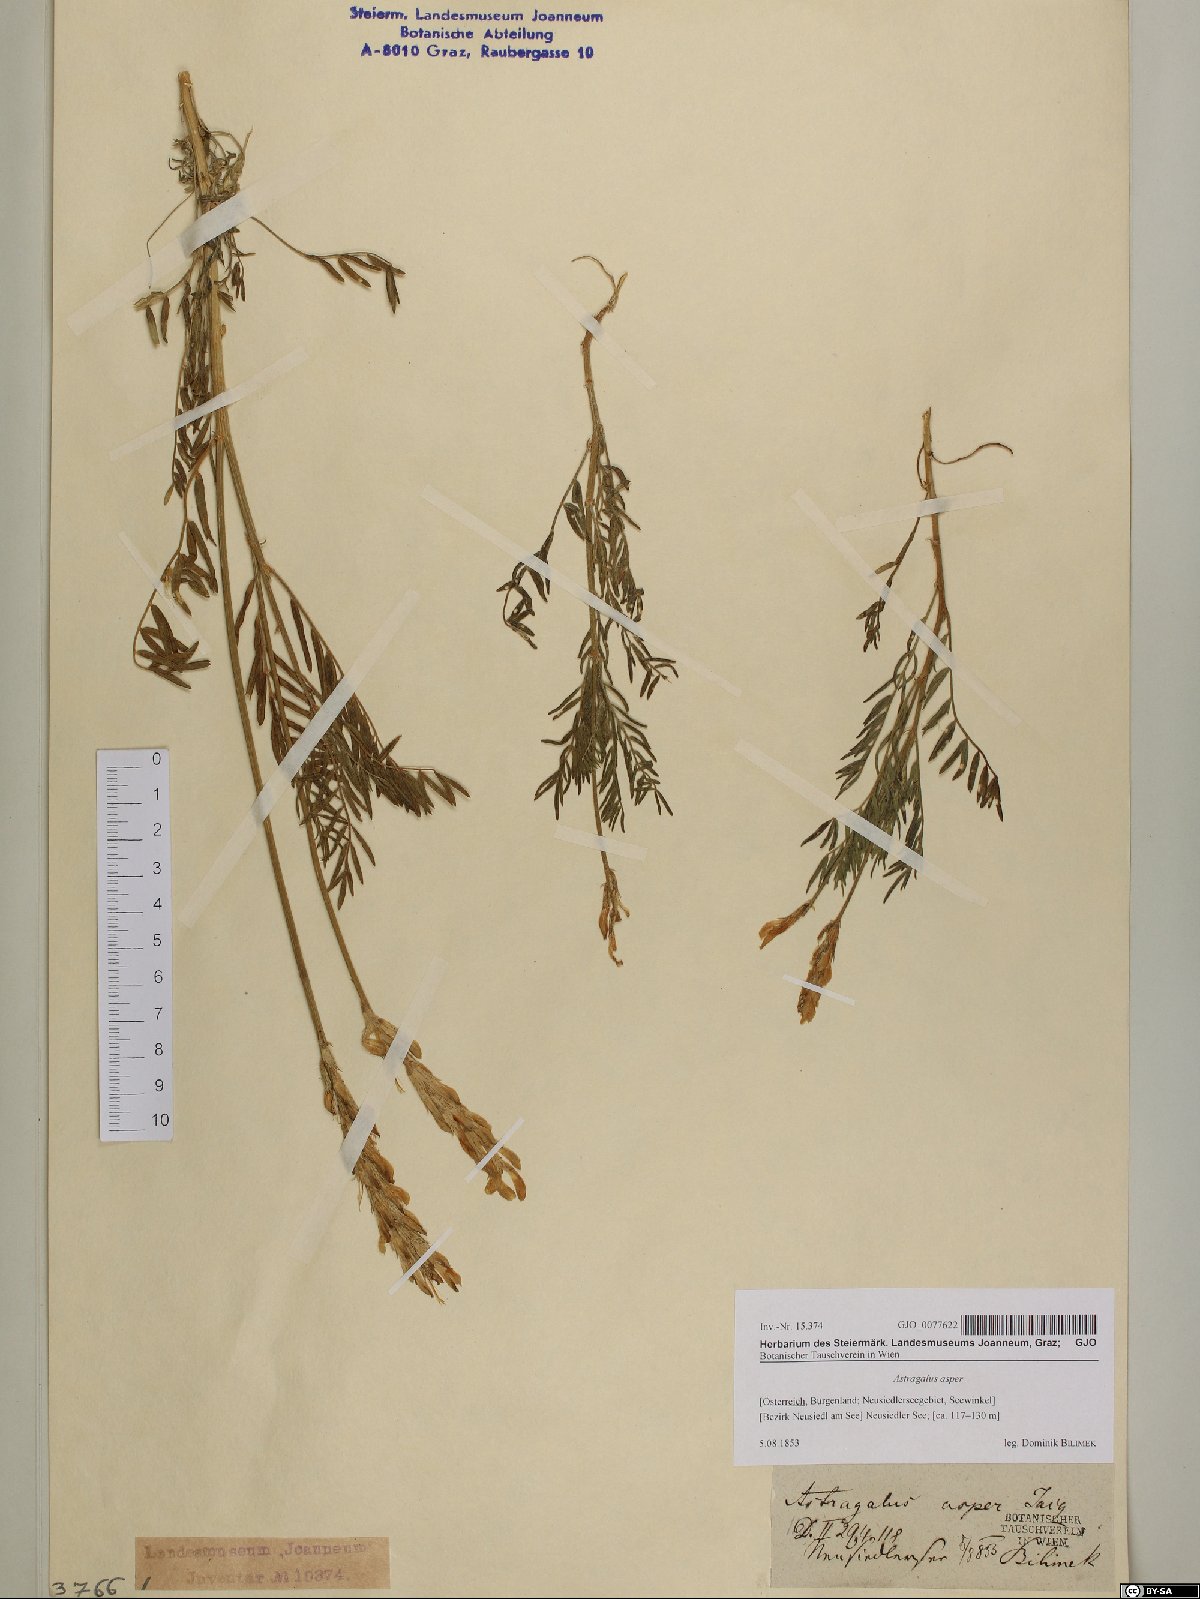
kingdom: Plantae
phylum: Tracheophyta
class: Magnoliopsida
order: Fabales
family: Fabaceae
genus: Astragalus
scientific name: Astragalus asper
